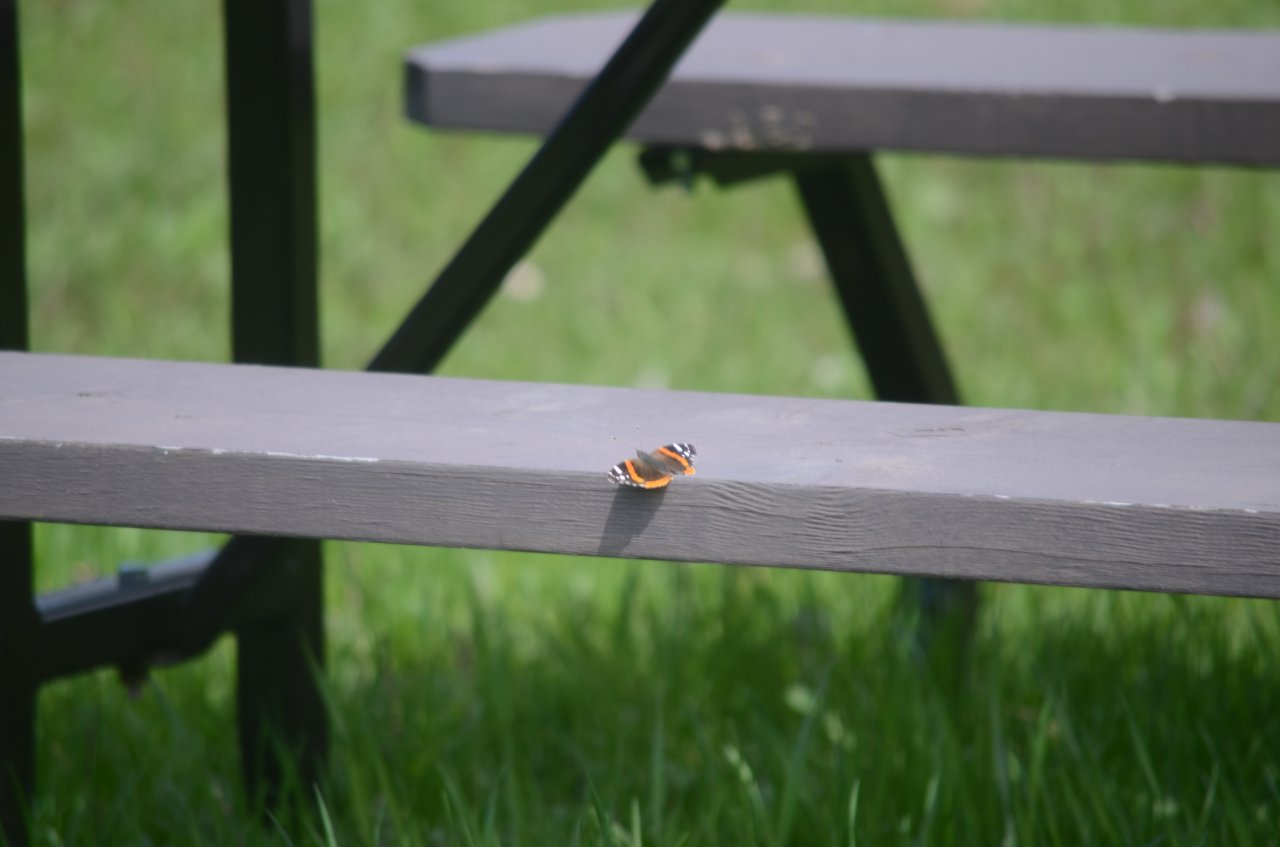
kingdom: Animalia
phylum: Arthropoda
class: Insecta
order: Lepidoptera
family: Nymphalidae
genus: Vanessa
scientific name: Vanessa atalanta
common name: Red Admiral
